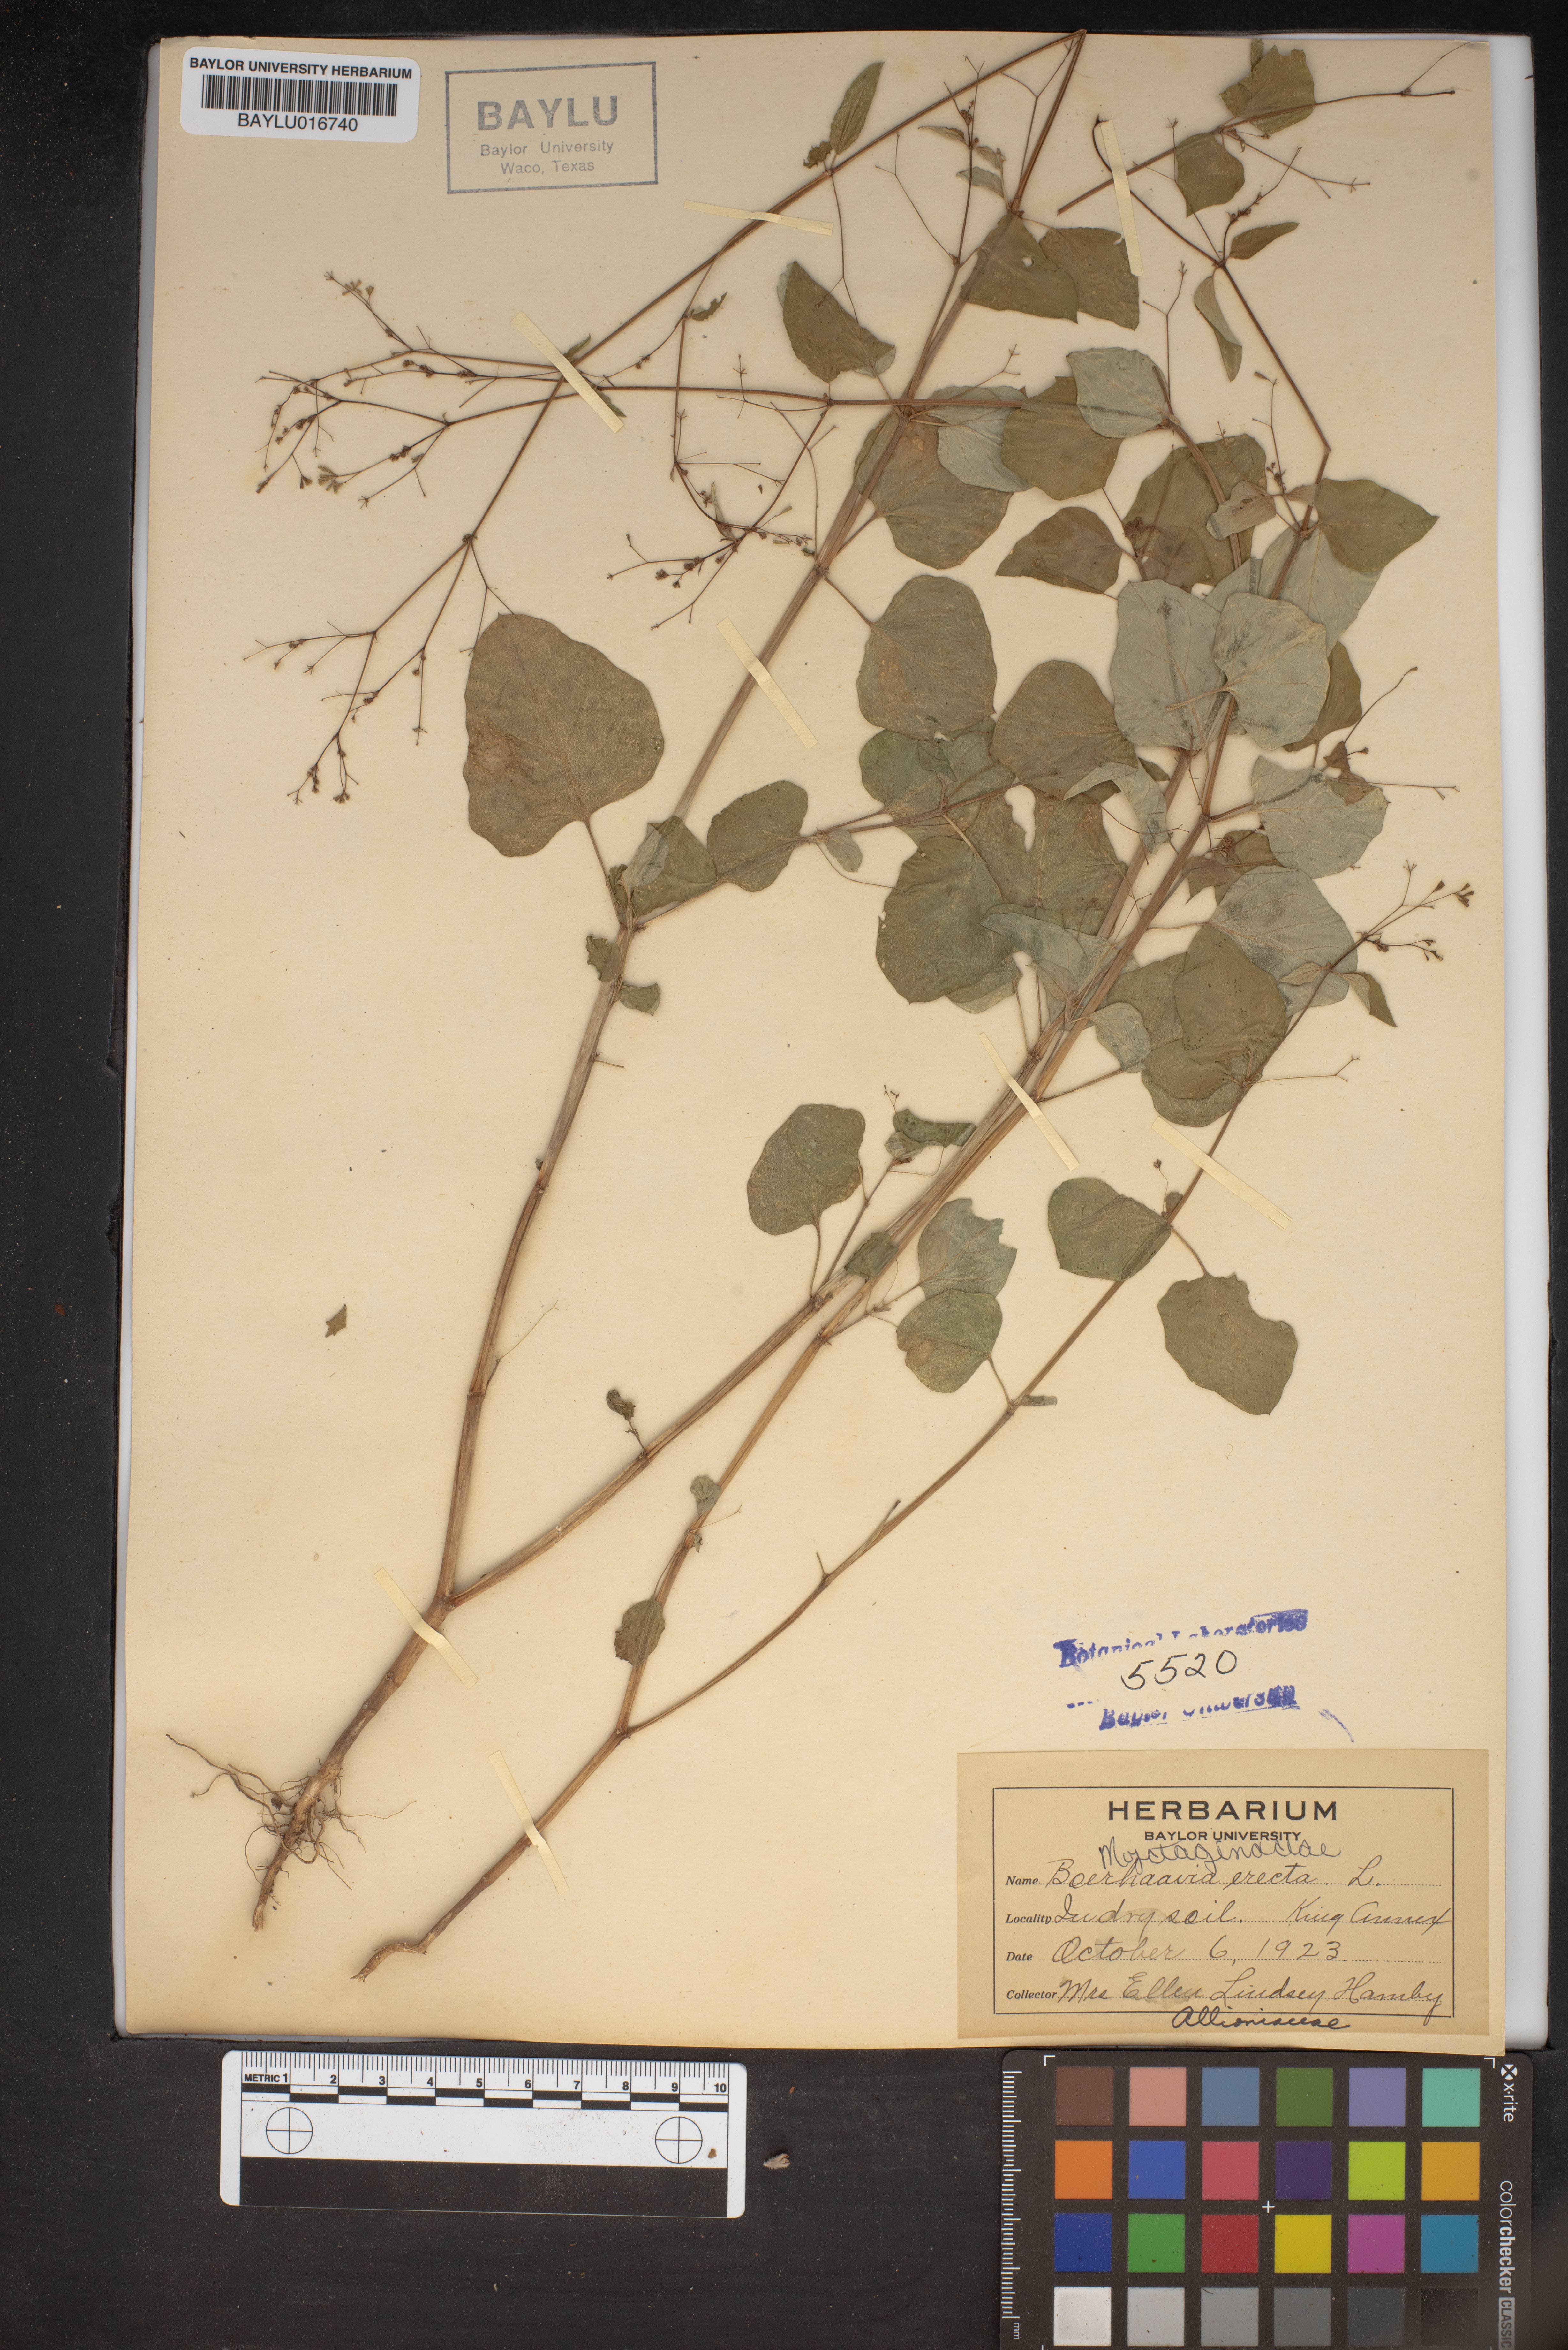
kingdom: Plantae
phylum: Tracheophyta
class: Magnoliopsida
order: Caryophyllales
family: Nyctaginaceae
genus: Boerhavia
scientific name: Boerhavia erecta
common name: Erect spiderling
